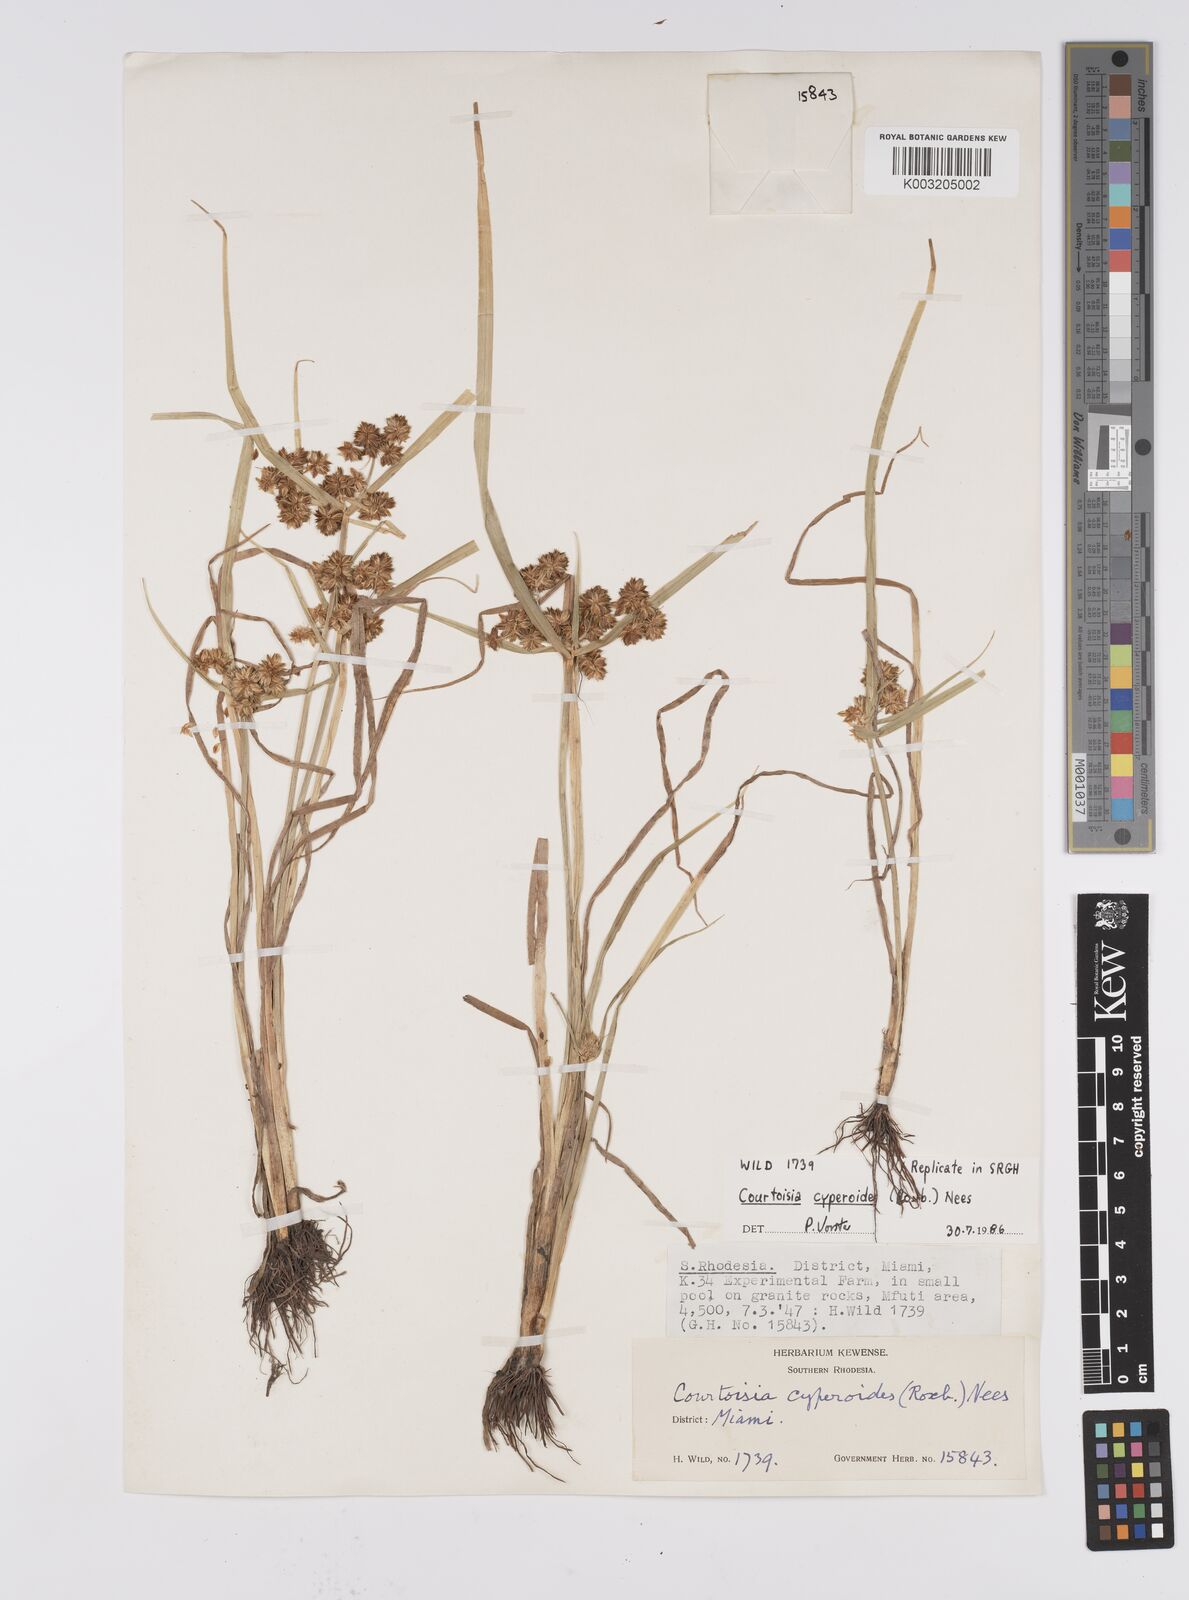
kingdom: Plantae
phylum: Tracheophyta
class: Liliopsida
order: Poales
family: Cyperaceae
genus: Cyperus
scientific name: Cyperus cyperoides
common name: Pacific island flat sedge
